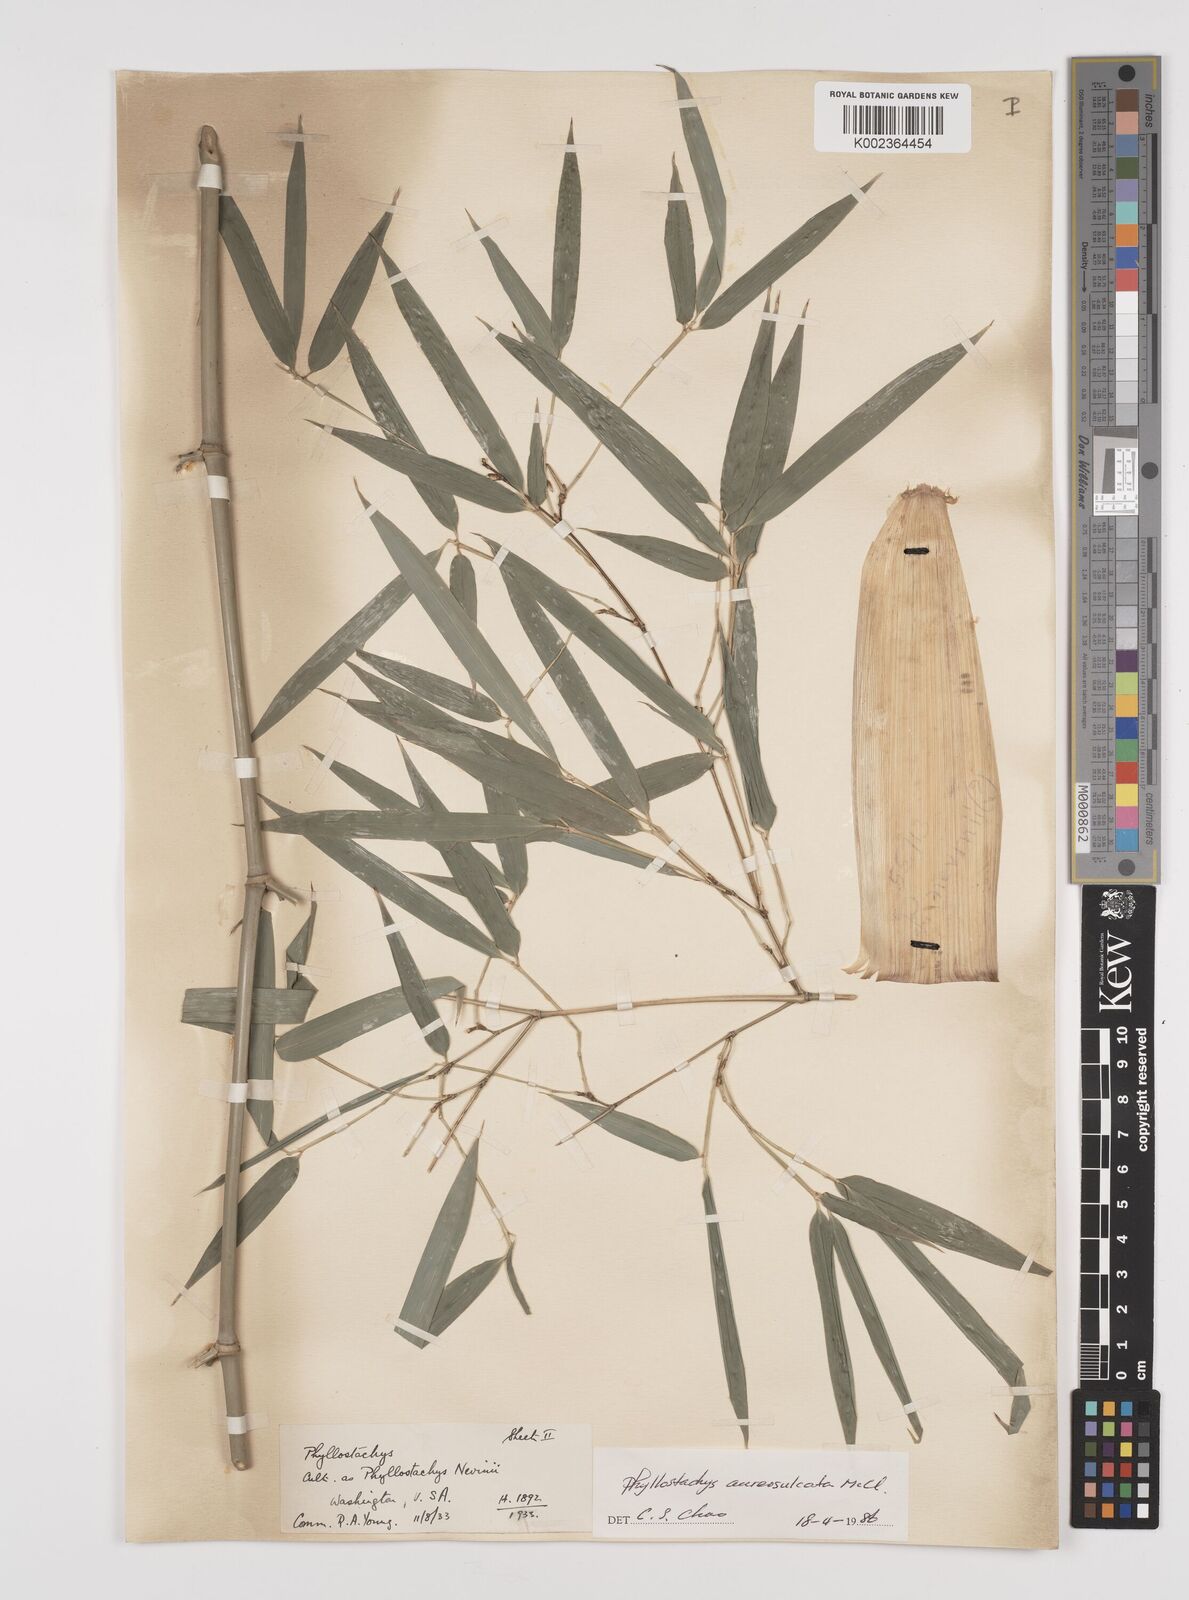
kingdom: Plantae
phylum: Tracheophyta
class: Liliopsida
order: Poales
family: Poaceae
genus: Phyllostachys
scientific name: Phyllostachys aureosulcata
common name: Yellow groove bamboo
